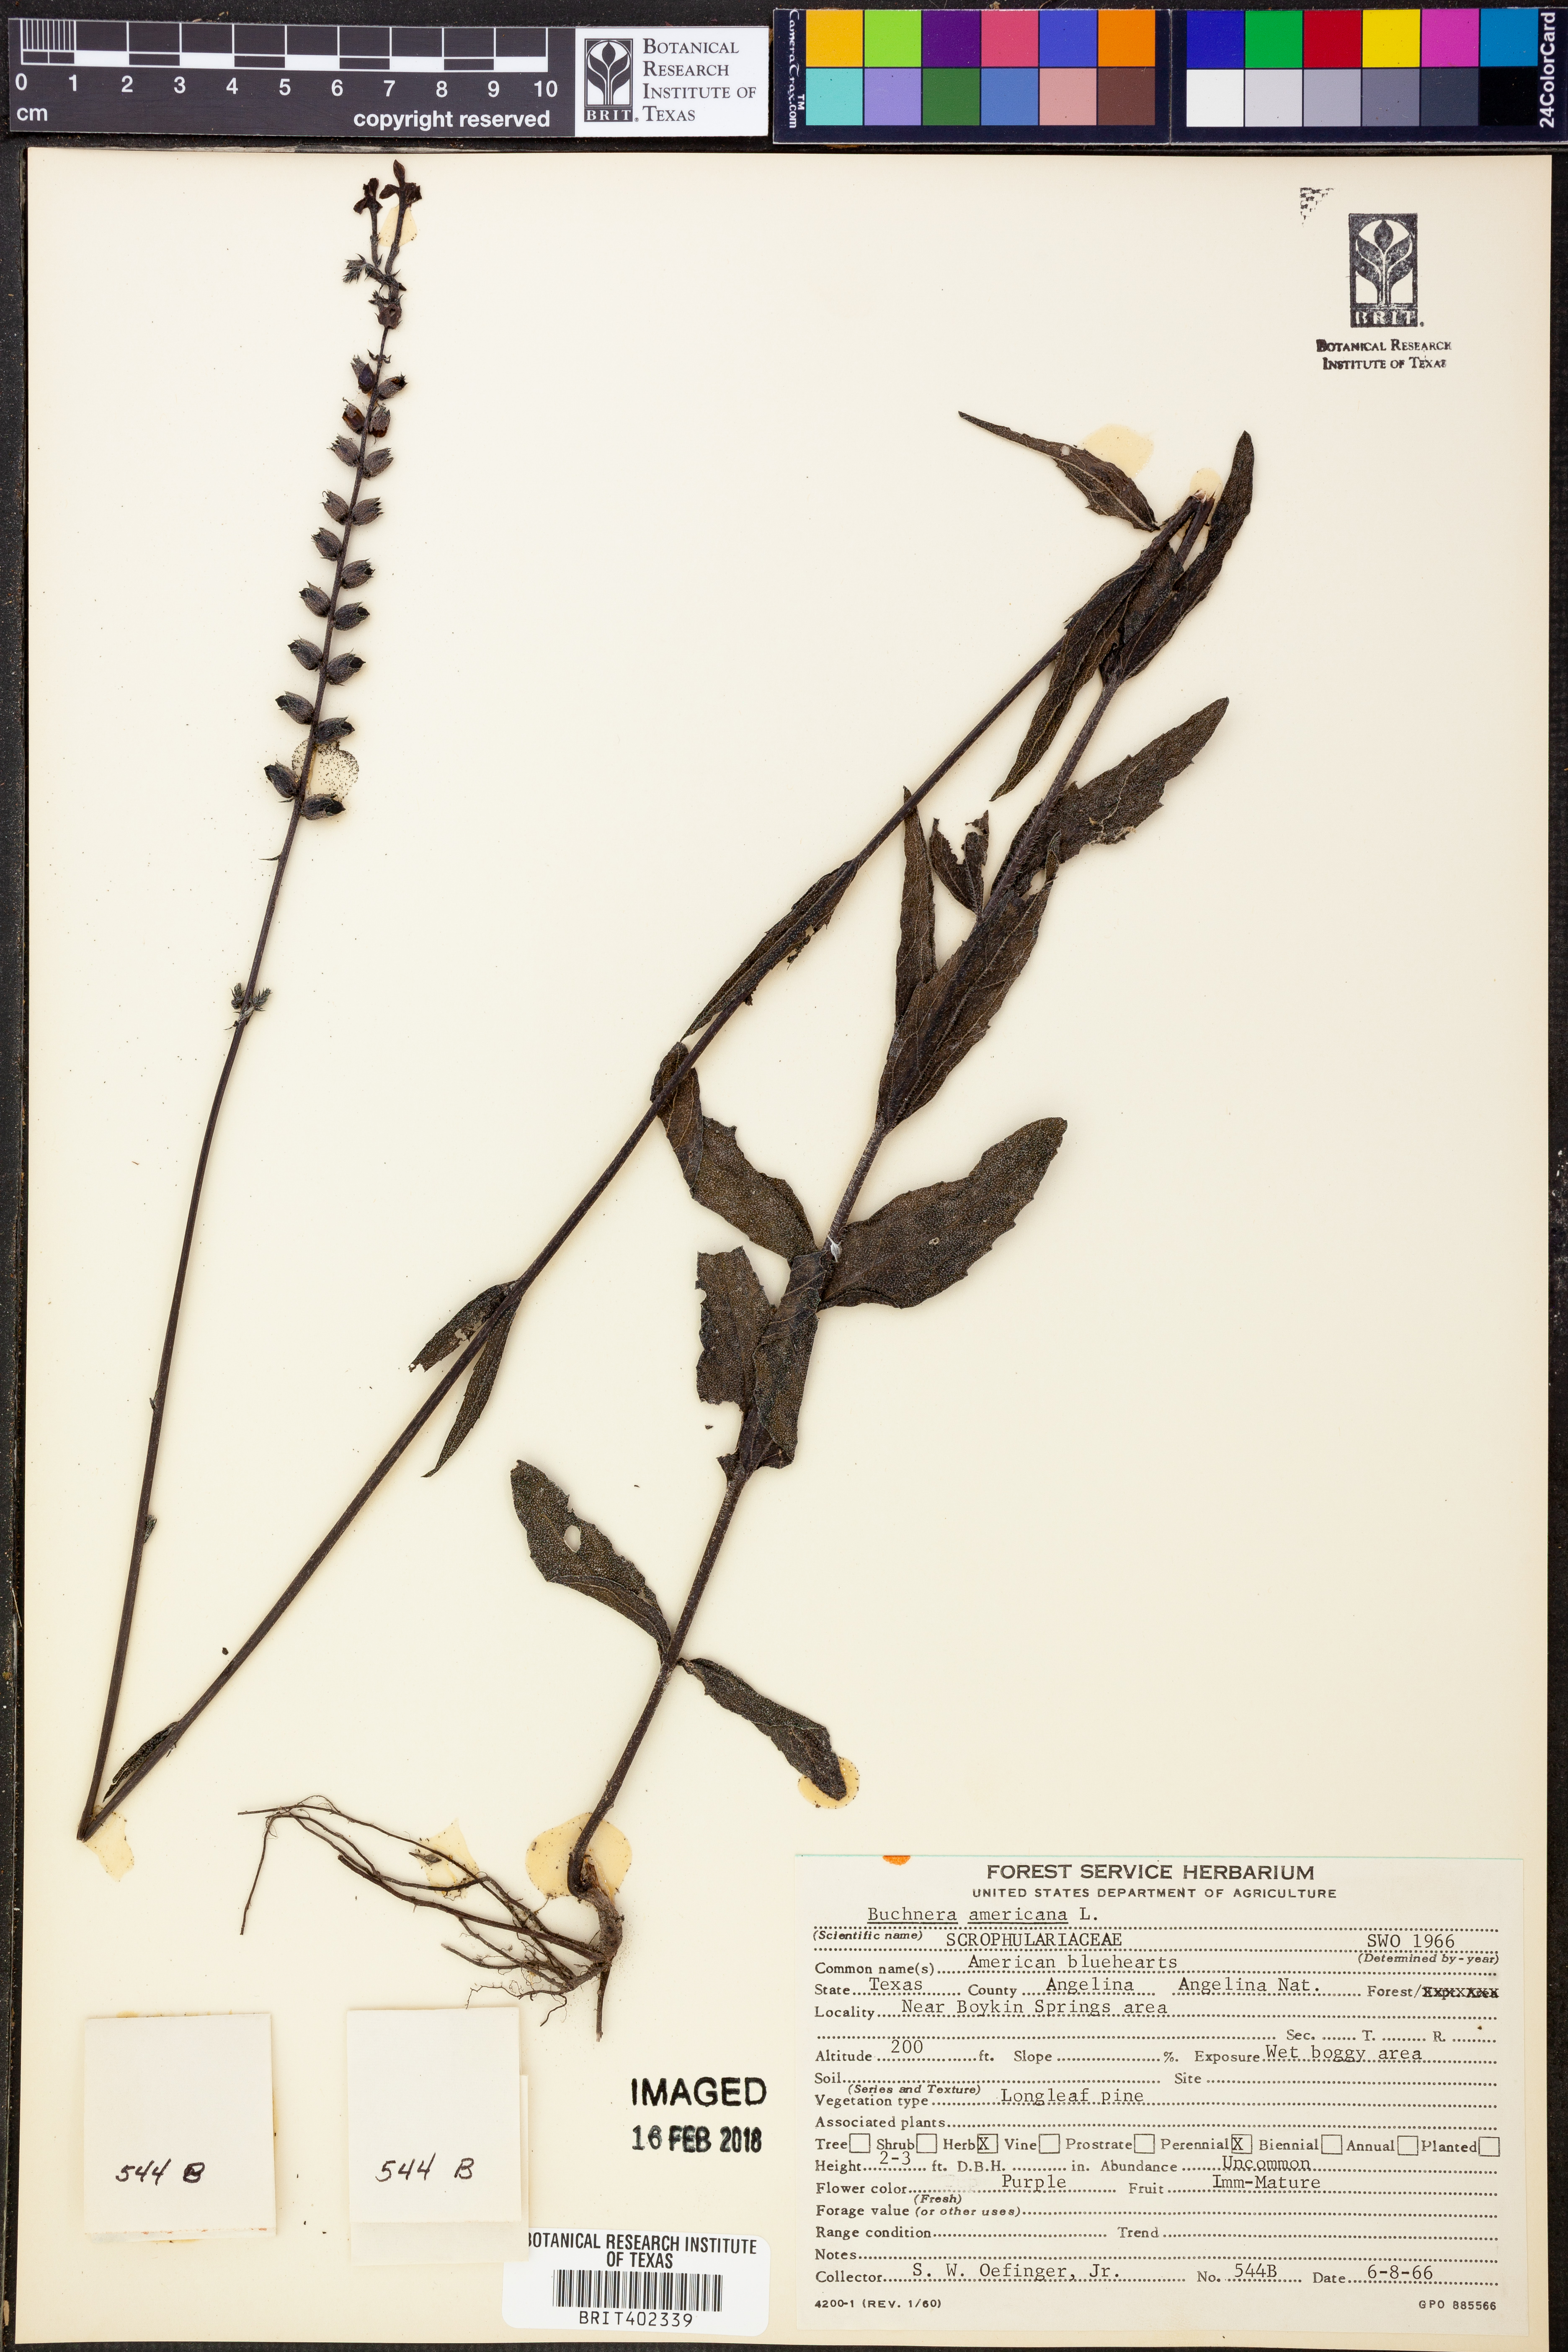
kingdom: Plantae
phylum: Tracheophyta
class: Magnoliopsida
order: Lamiales
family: Orobanchaceae
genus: Buchnera
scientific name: Buchnera americana
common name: American bluehearts
